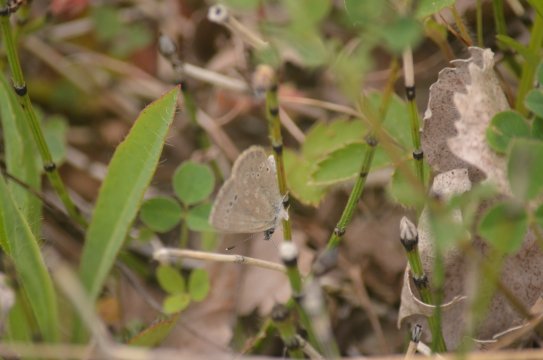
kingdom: Animalia
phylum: Arthropoda
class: Insecta
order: Lepidoptera
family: Lycaenidae
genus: Glaucopsyche
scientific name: Glaucopsyche lygdamus
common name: Silvery Blue
